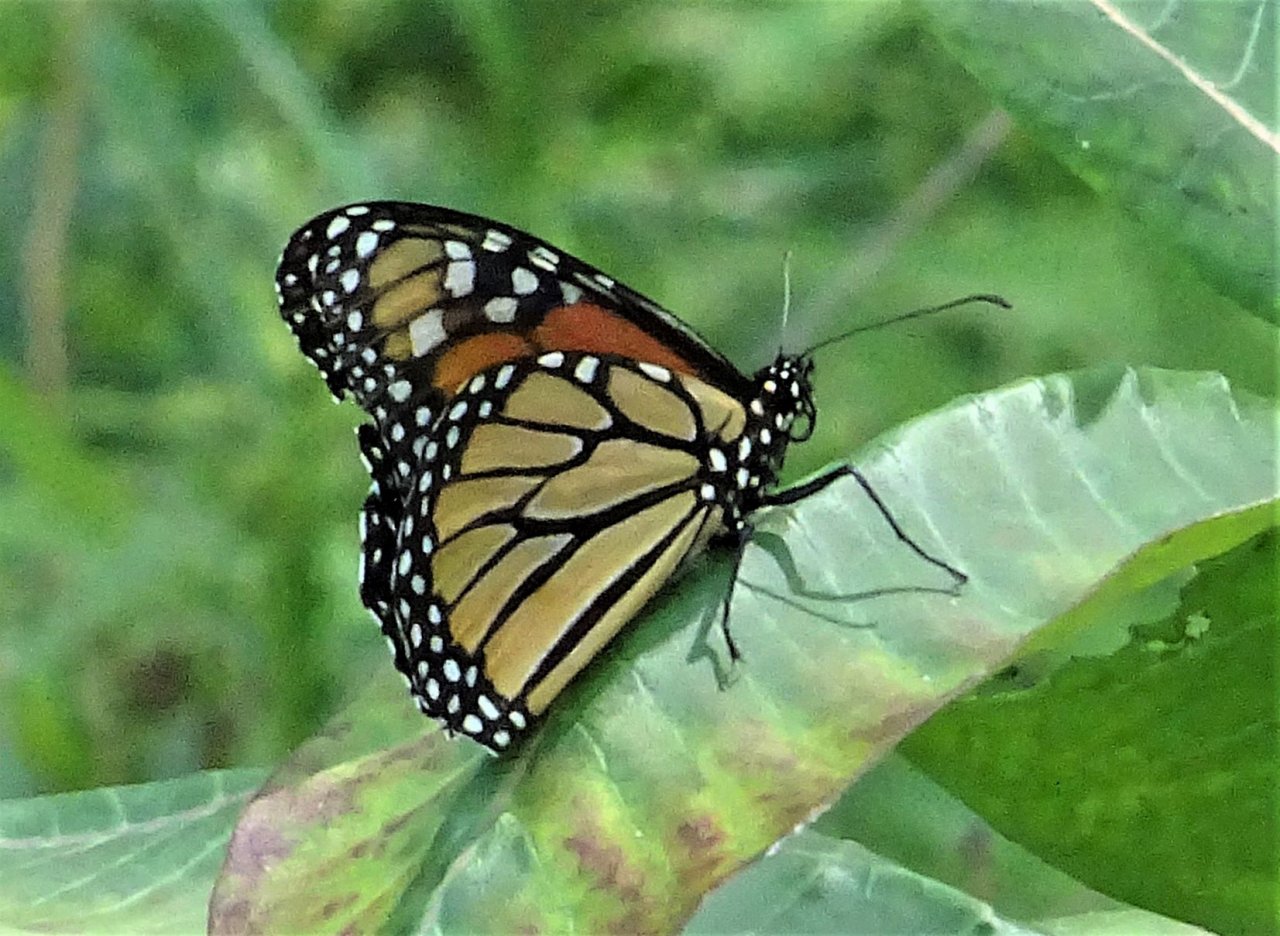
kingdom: Animalia
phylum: Arthropoda
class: Insecta
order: Lepidoptera
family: Nymphalidae
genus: Danaus
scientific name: Danaus plexippus
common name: Monarch
